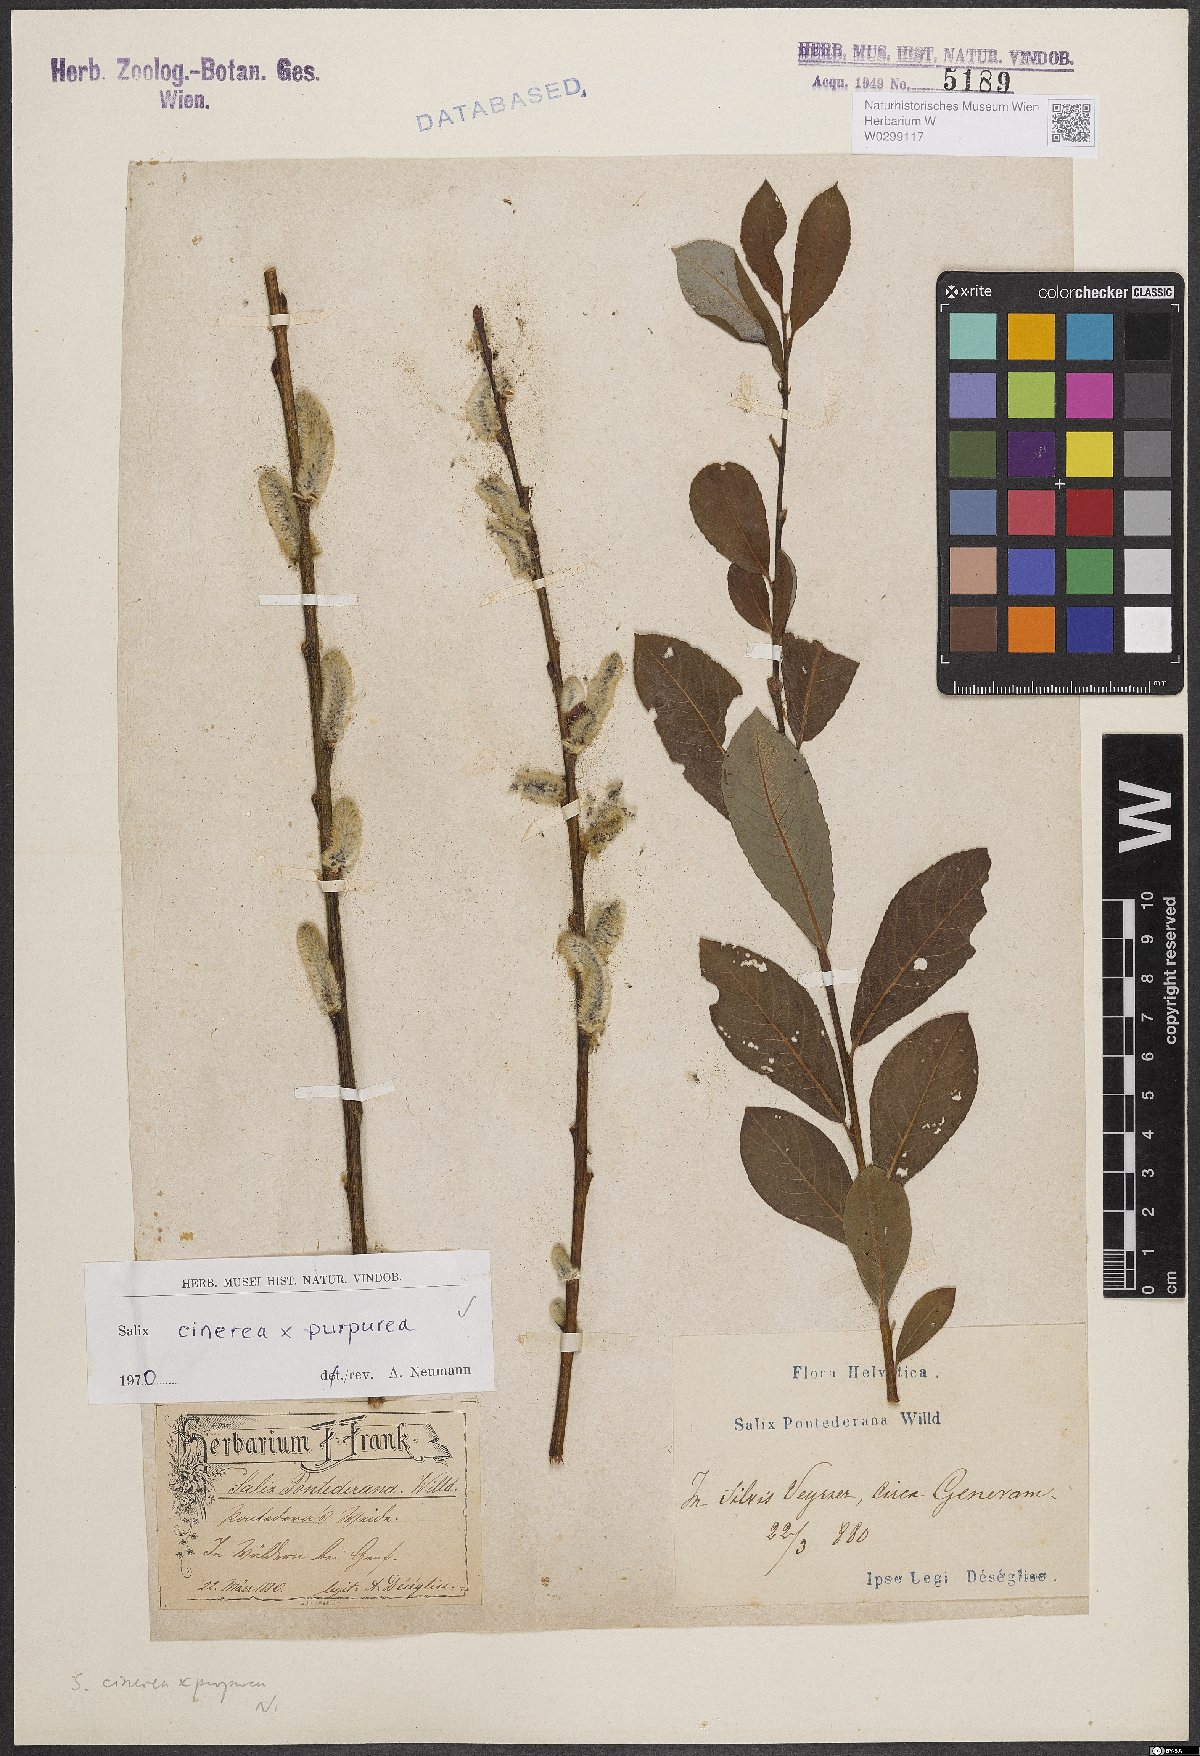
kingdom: Plantae
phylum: Tracheophyta
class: Magnoliopsida
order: Malpighiales
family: Salicaceae
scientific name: Salicaceae
